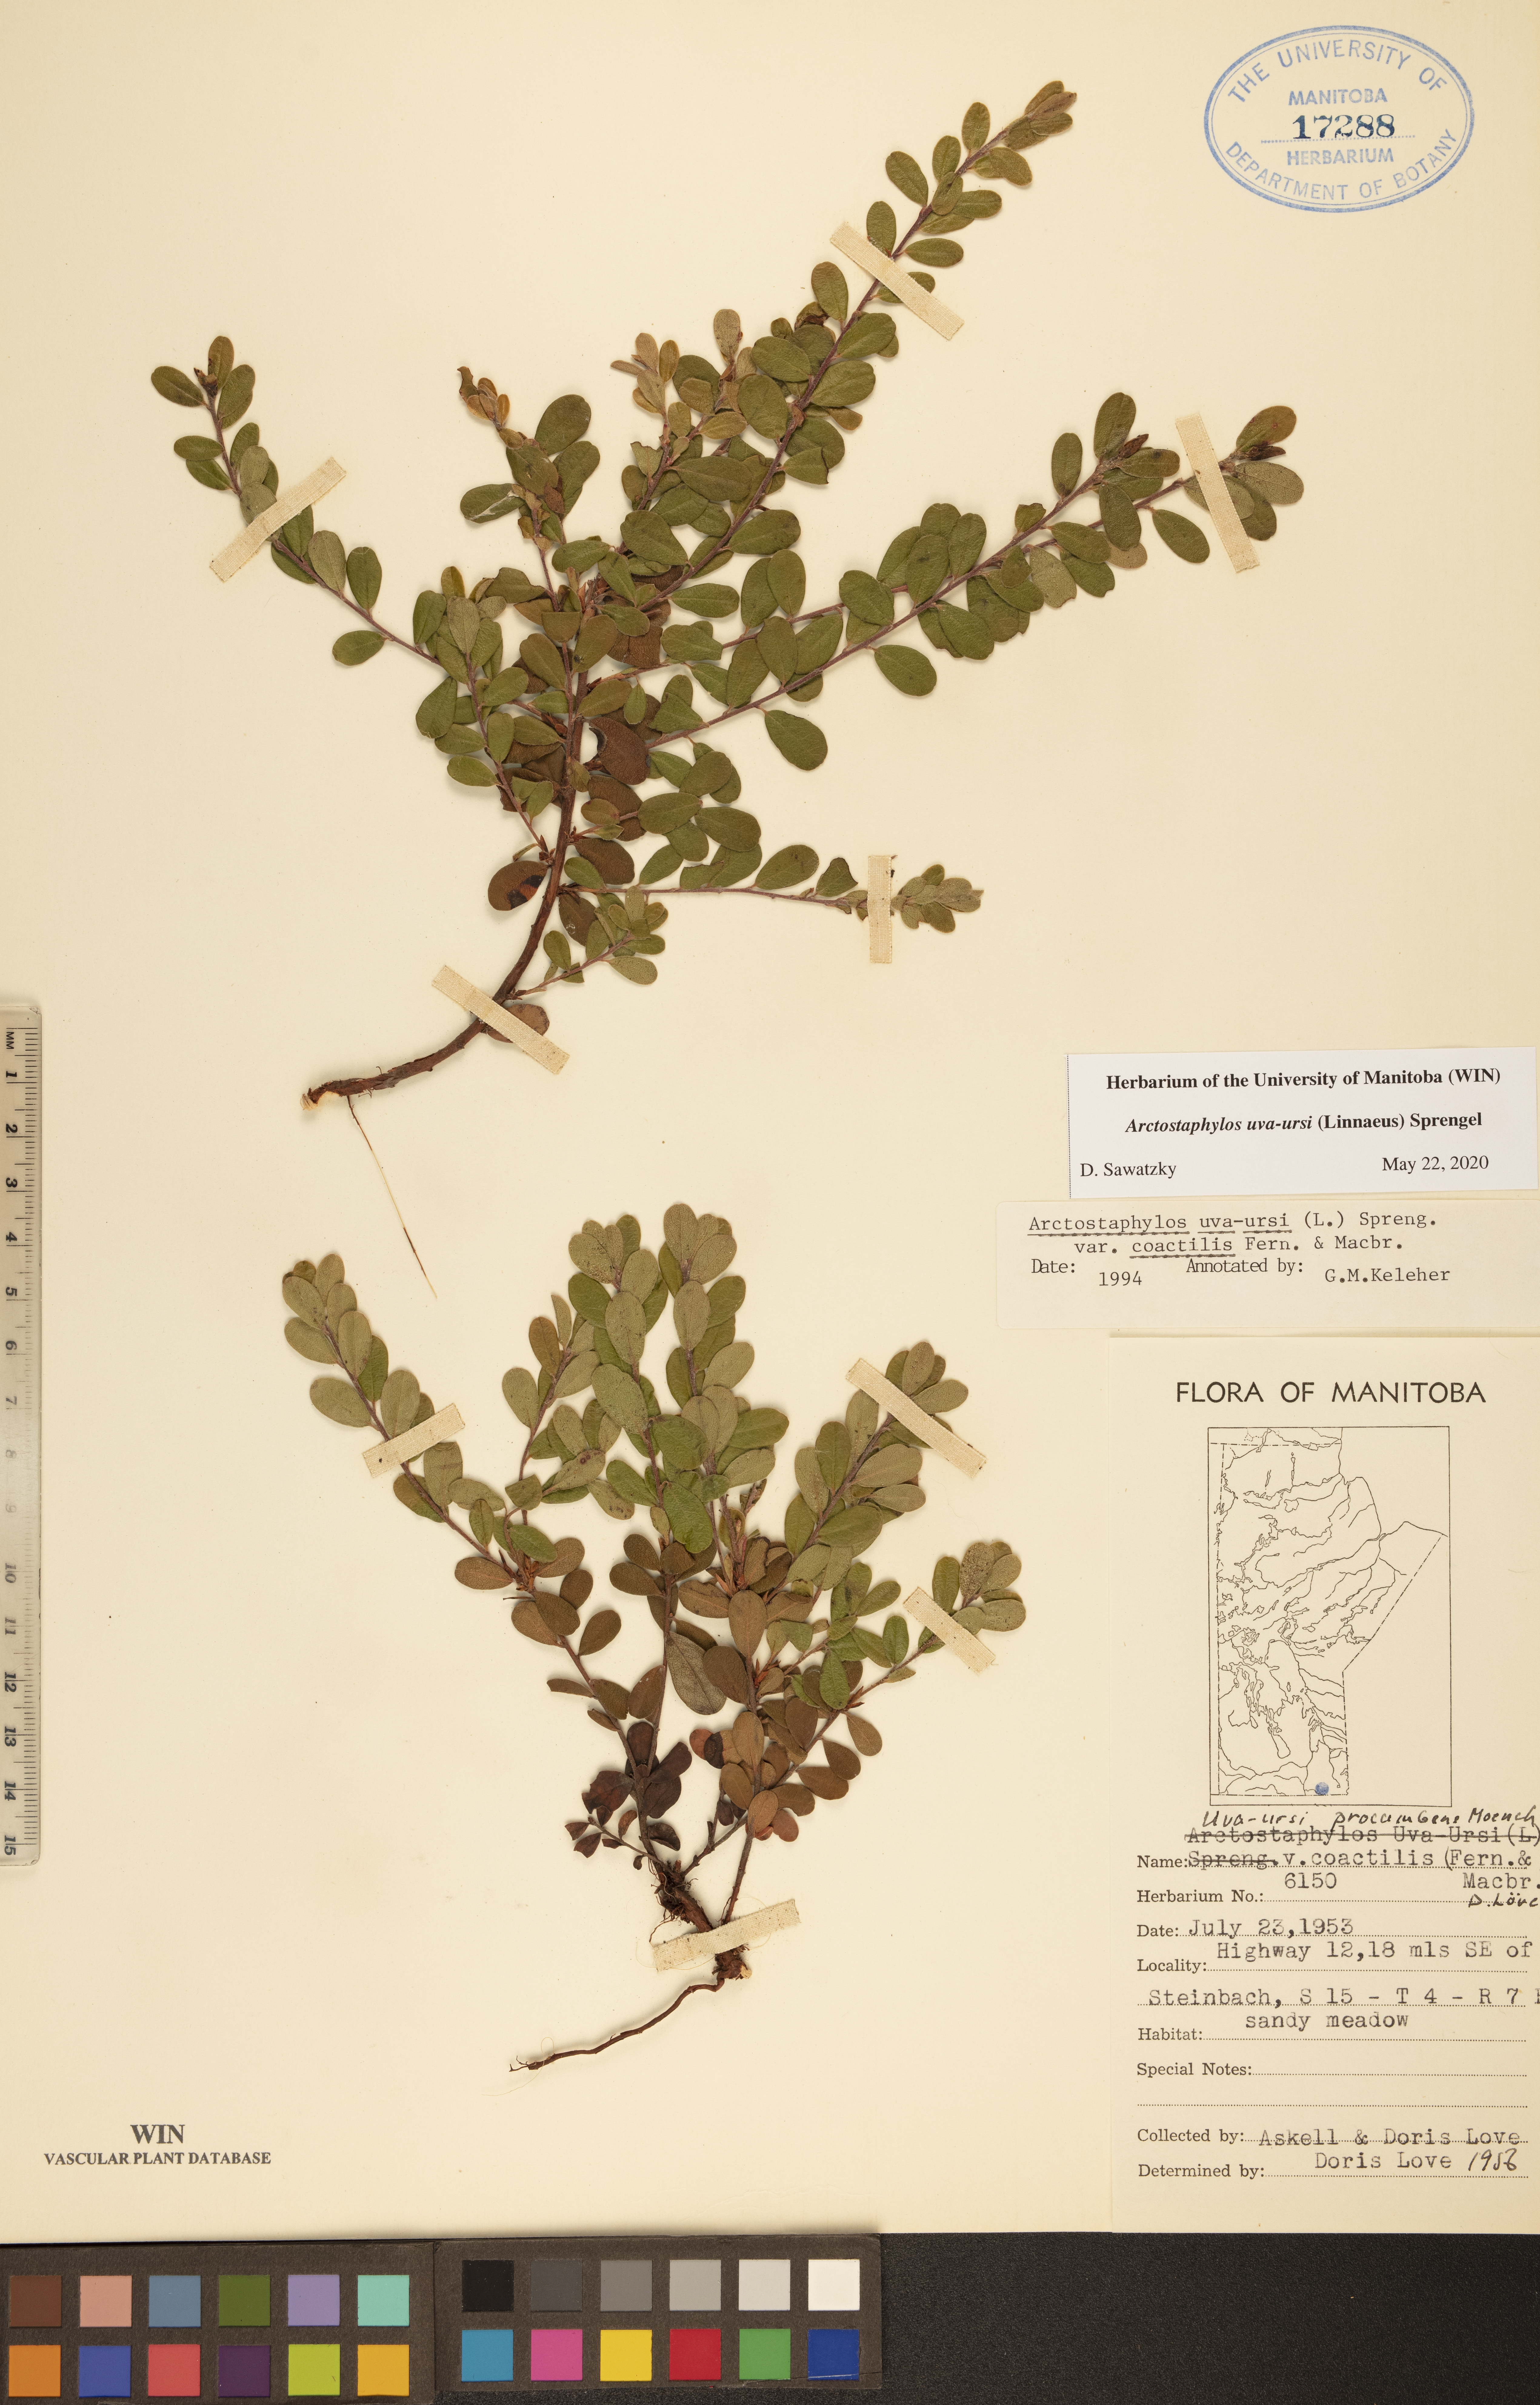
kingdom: Plantae
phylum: Tracheophyta
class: Magnoliopsida
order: Ericales
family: Ericaceae
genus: Arctostaphylos
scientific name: Arctostaphylos uva-ursi
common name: Bearberry
